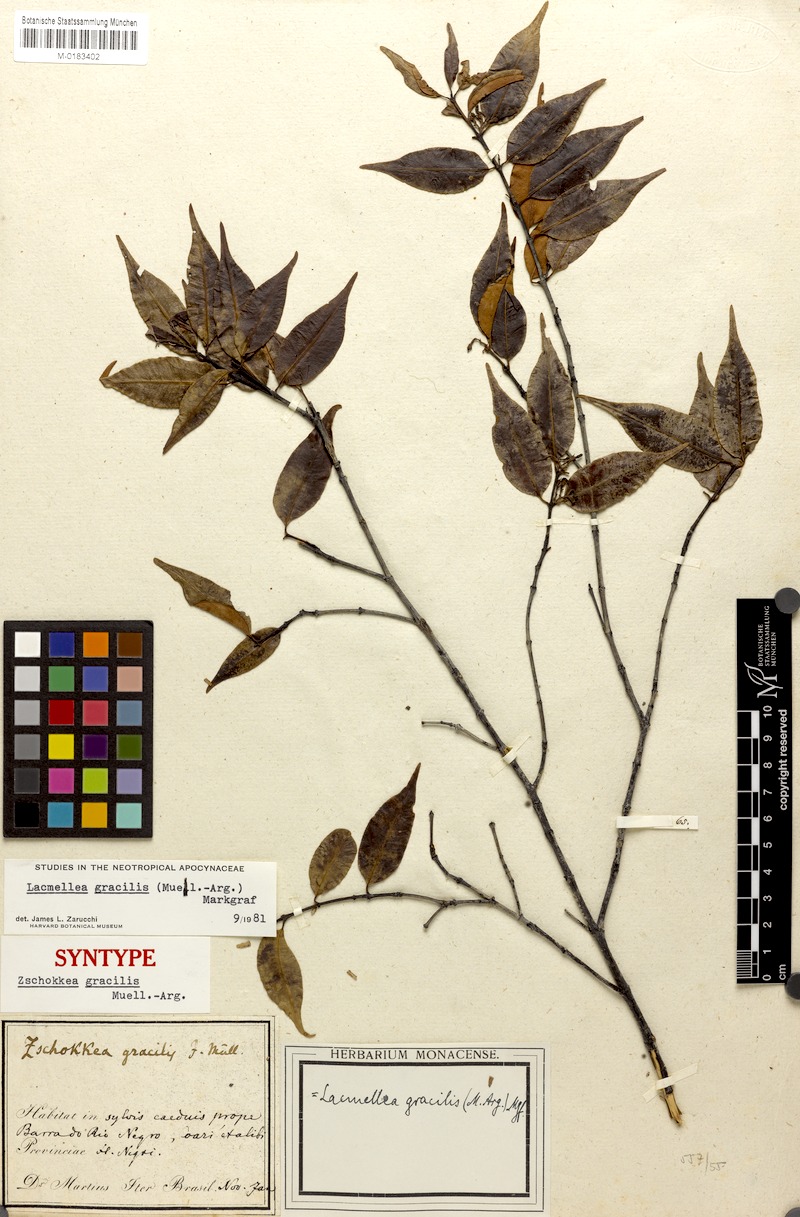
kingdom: Plantae
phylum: Tracheophyta
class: Magnoliopsida
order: Gentianales
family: Apocynaceae
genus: Lacmellea
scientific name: Lacmellea gracilis
